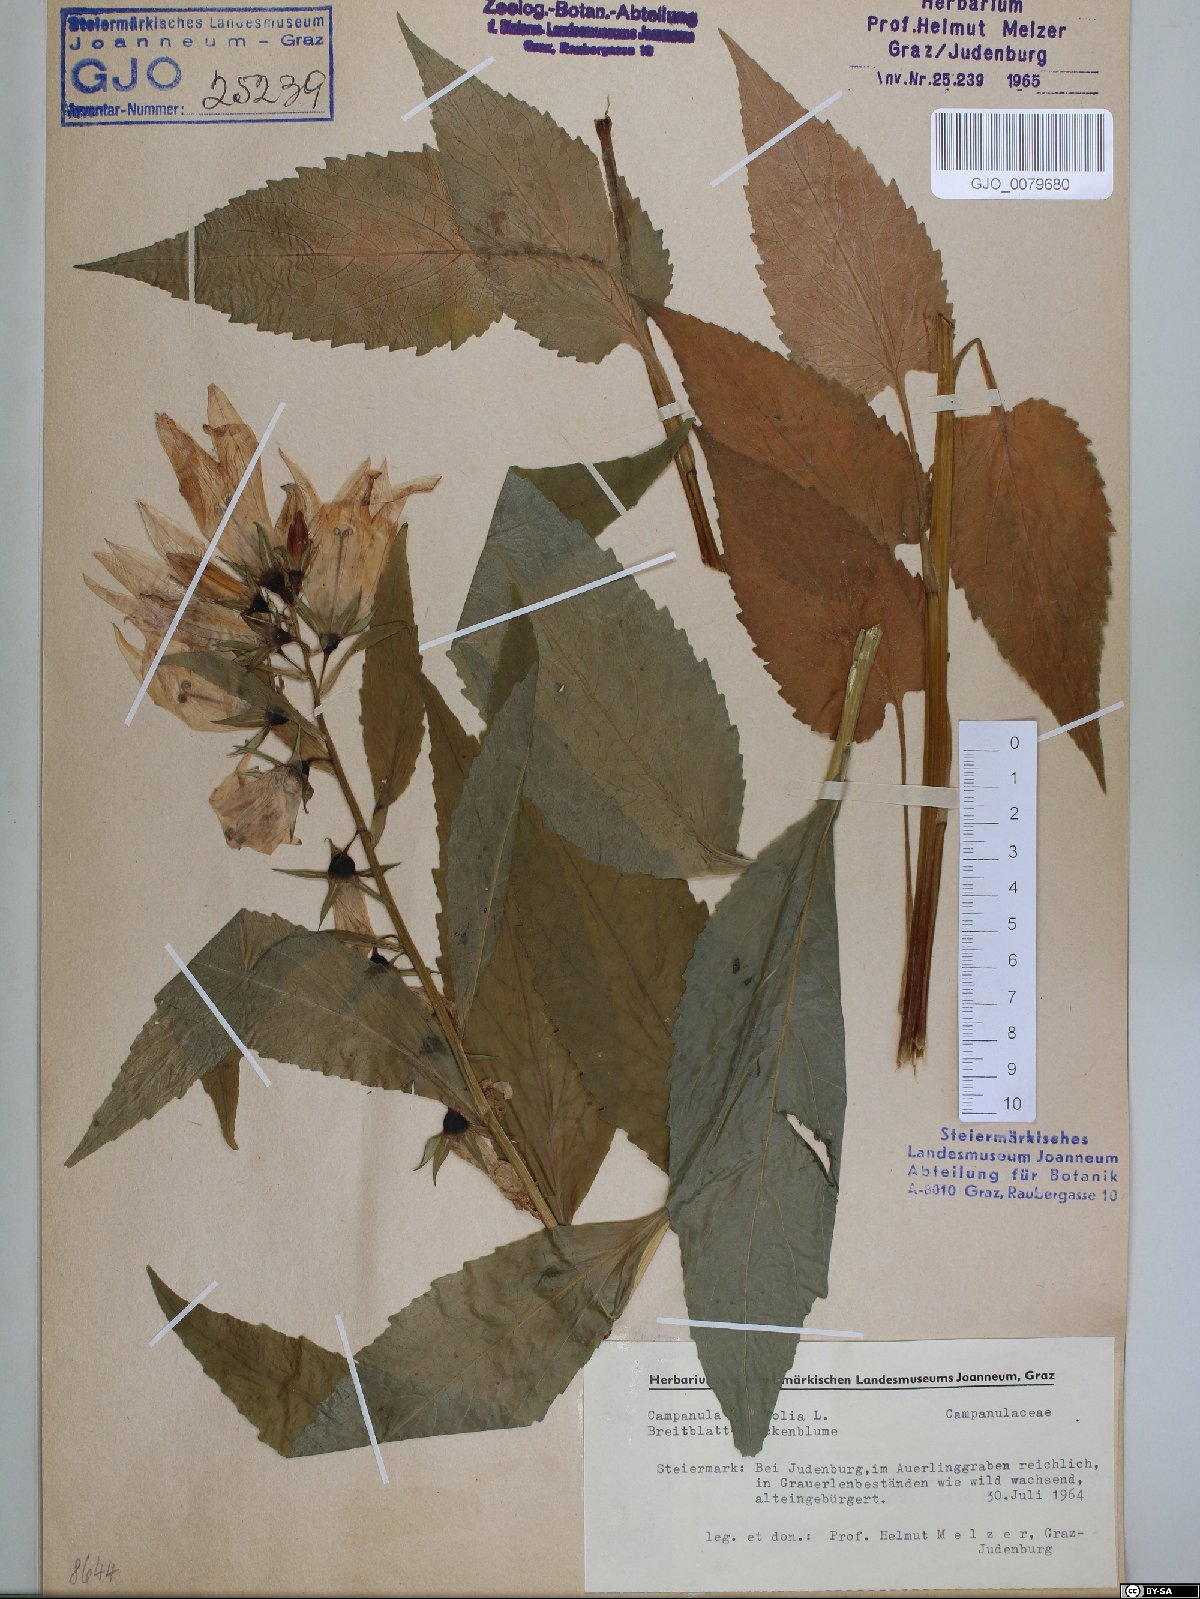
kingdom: Plantae
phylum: Tracheophyta
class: Magnoliopsida
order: Asterales
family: Campanulaceae
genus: Campanula
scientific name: Campanula latifolia
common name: Giant bellflower
